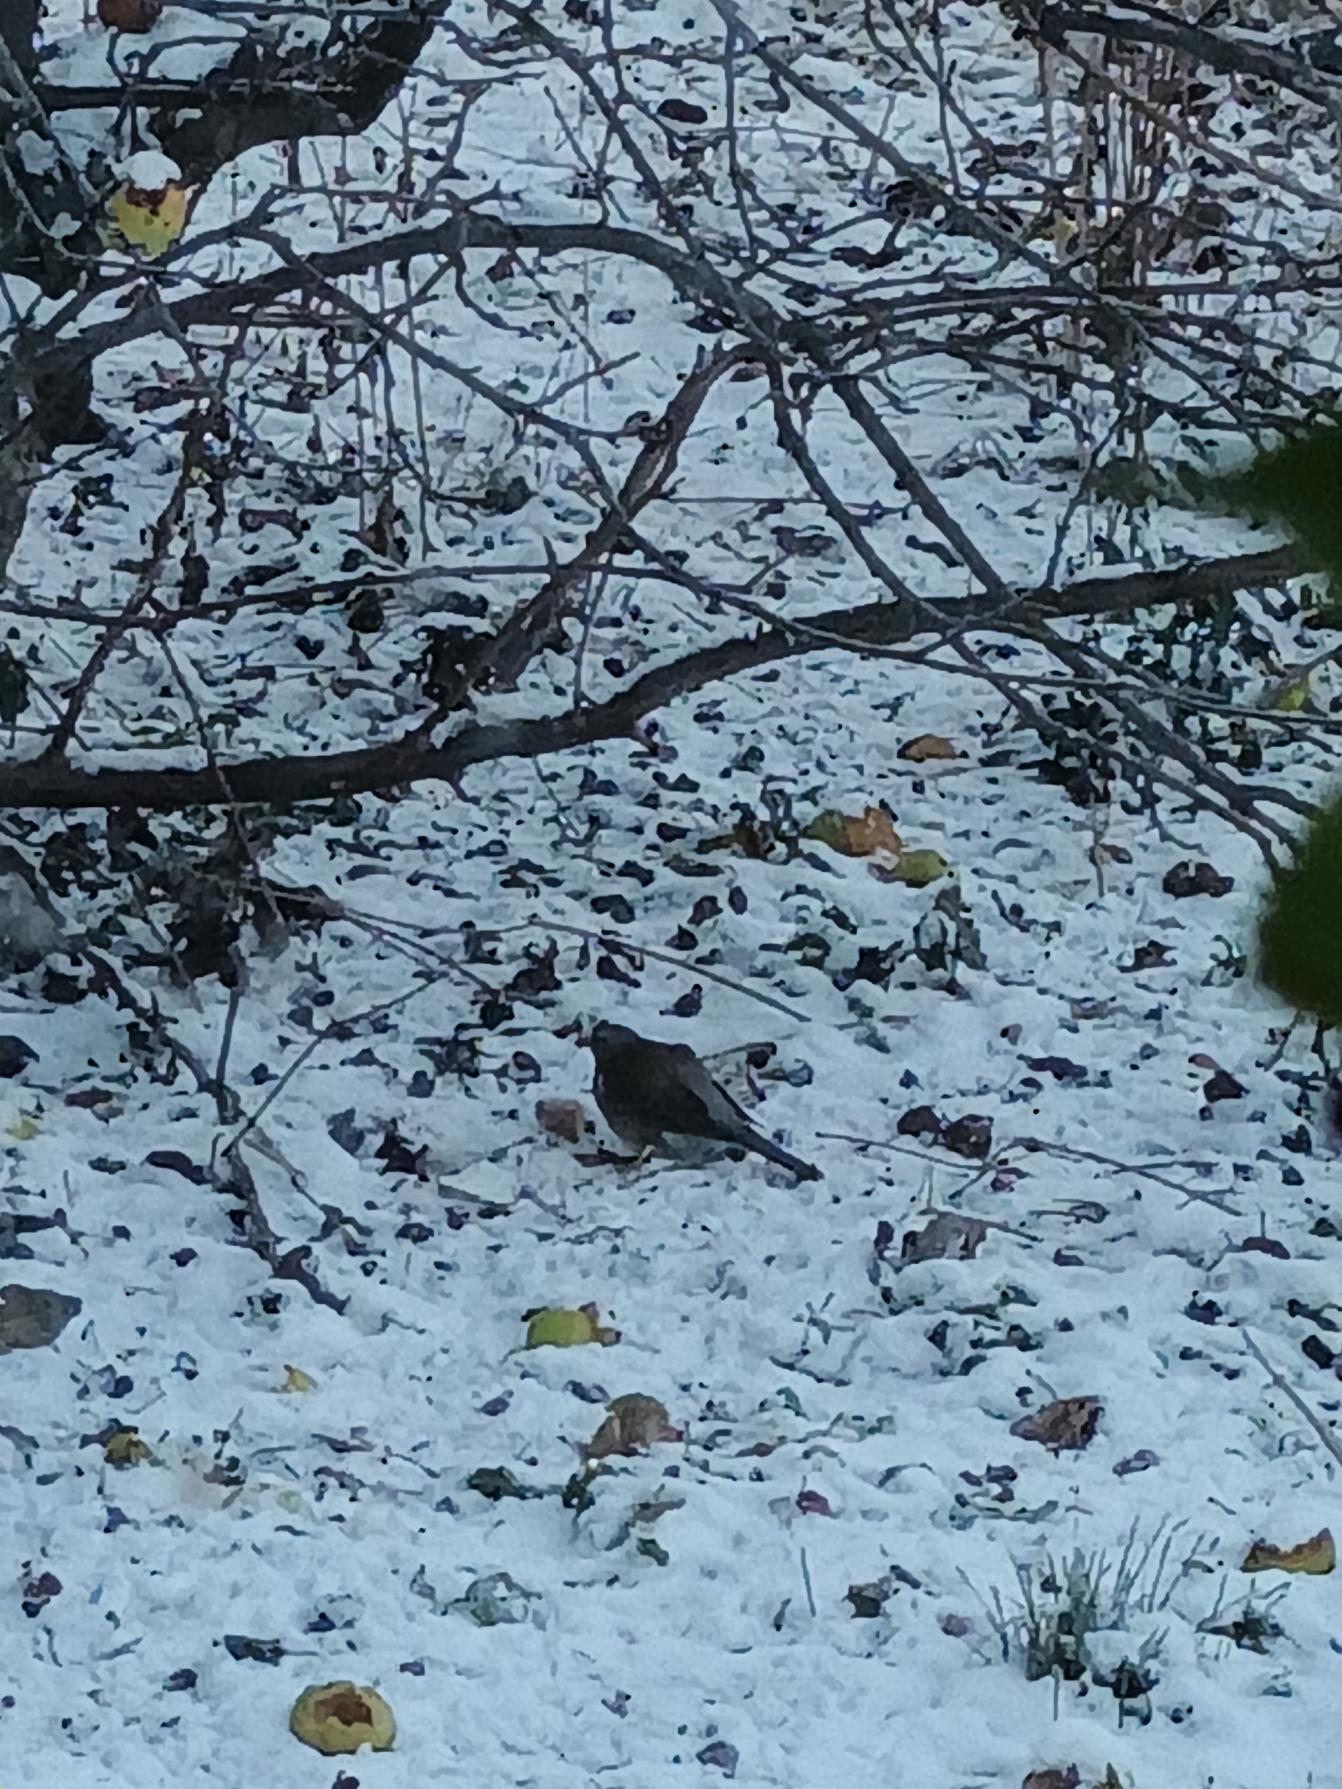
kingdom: Animalia
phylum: Chordata
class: Aves
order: Passeriformes
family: Turdidae
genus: Turdus
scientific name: Turdus pilaris
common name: Sjagger
